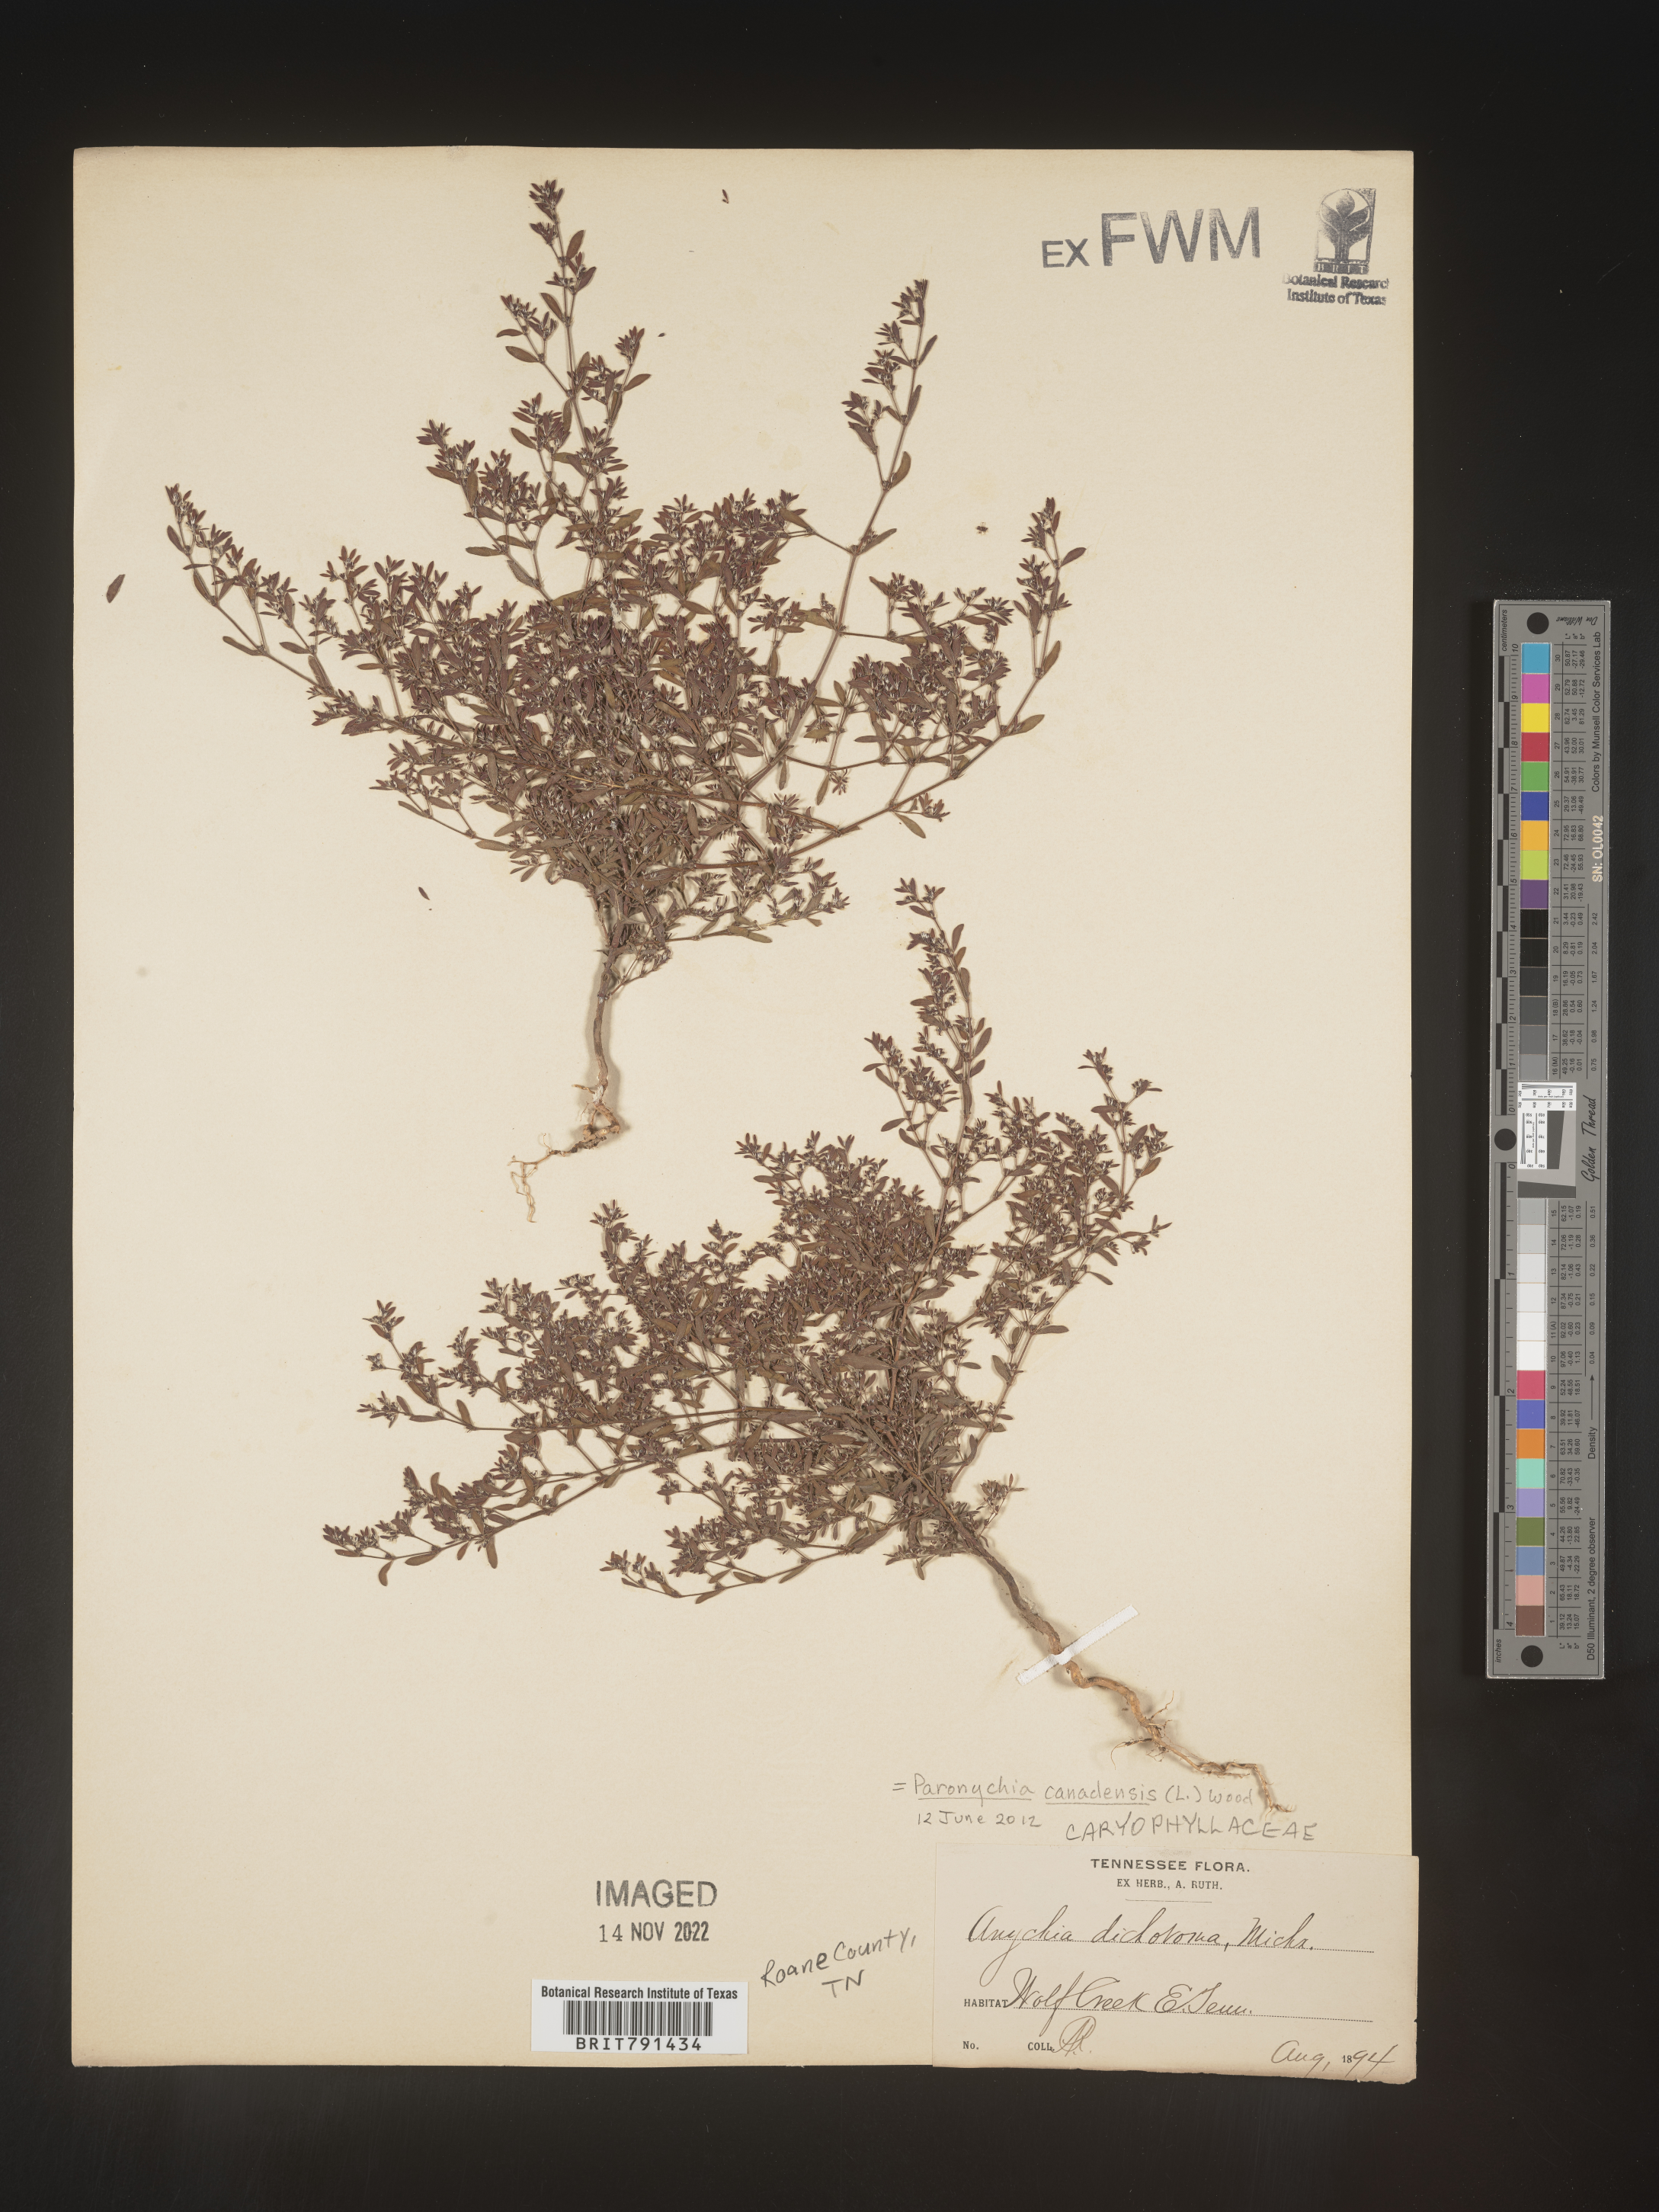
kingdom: Plantae
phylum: Tracheophyta
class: Magnoliopsida
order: Caryophyllales
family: Caryophyllaceae
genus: Paronychia
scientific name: Paronychia canadensis
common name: Canada forked nailwort
